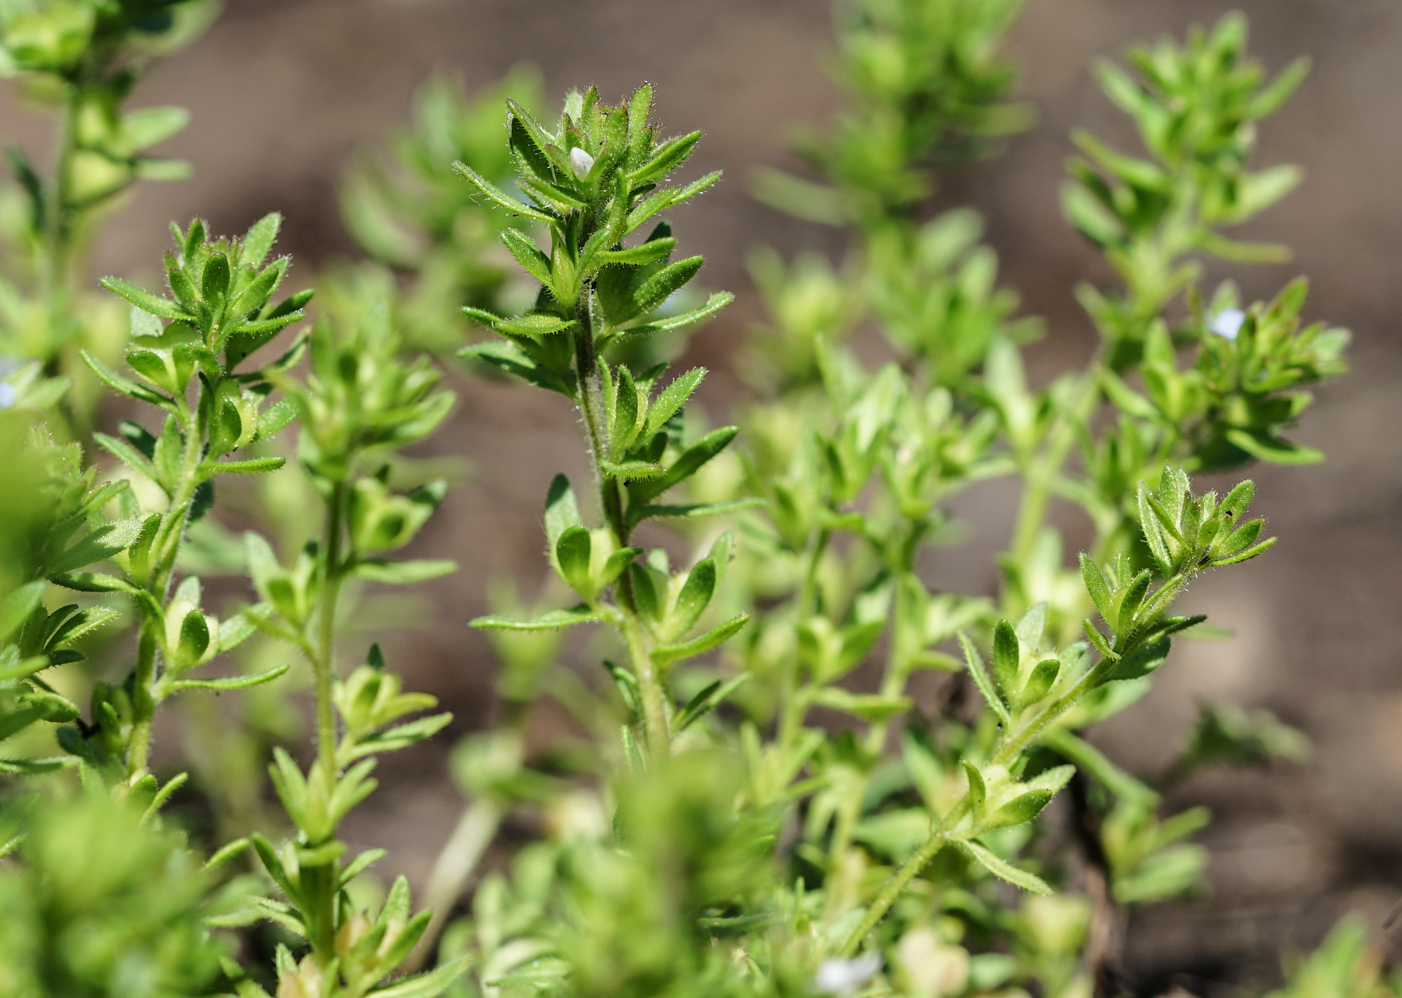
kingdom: Plantae
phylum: Tracheophyta
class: Magnoliopsida
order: Lamiales
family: Plantaginaceae
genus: Veronica
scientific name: Veronica verna
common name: Spring speedwell
